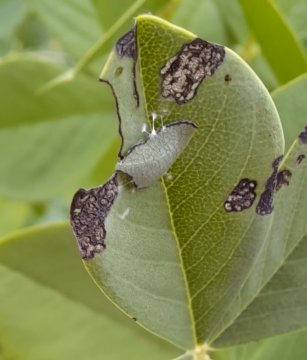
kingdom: Animalia
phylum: Arthropoda
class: Insecta
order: Lepidoptera
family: Hesperiidae
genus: Gesta
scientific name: Gesta
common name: Wild Indigo Duskywing
